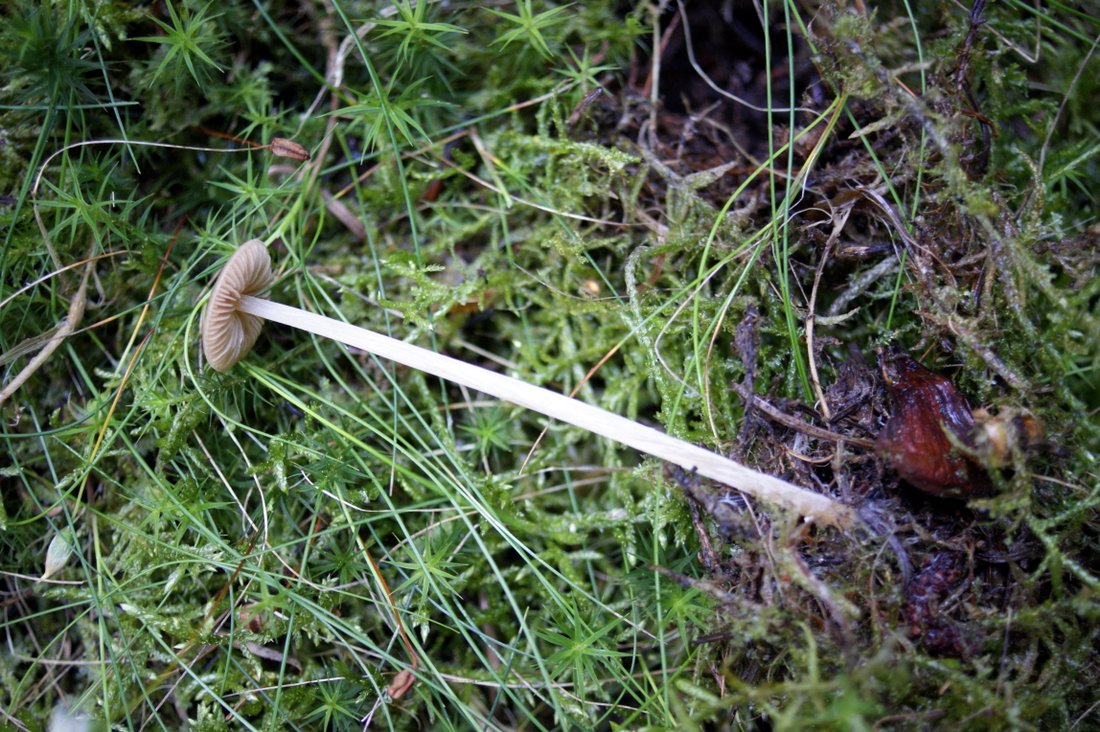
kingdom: Fungi
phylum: Basidiomycota
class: Agaricomycetes
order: Agaricales
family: Entolomataceae
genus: Entoloma
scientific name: Entoloma cetratum
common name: voks-rødblad
